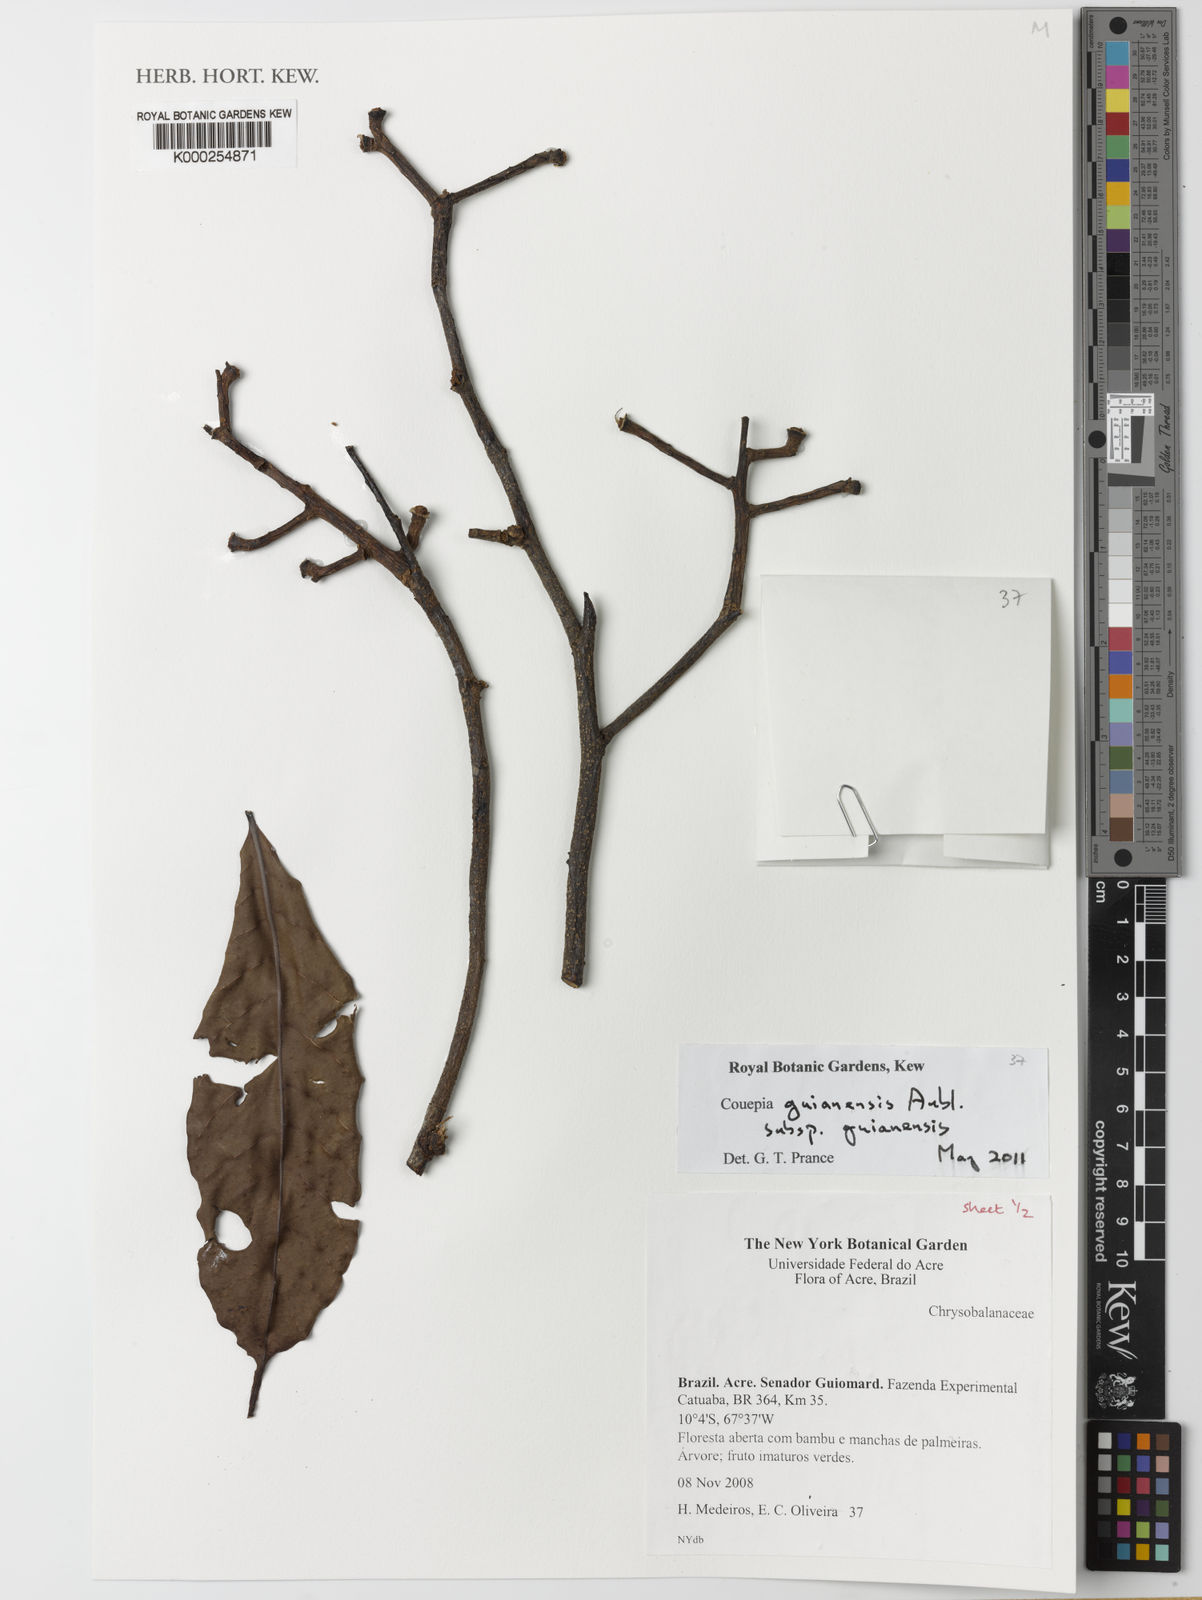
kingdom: Plantae
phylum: Tracheophyta
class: Magnoliopsida
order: Malpighiales
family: Chrysobalanaceae
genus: Couepia
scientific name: Couepia guianensis
